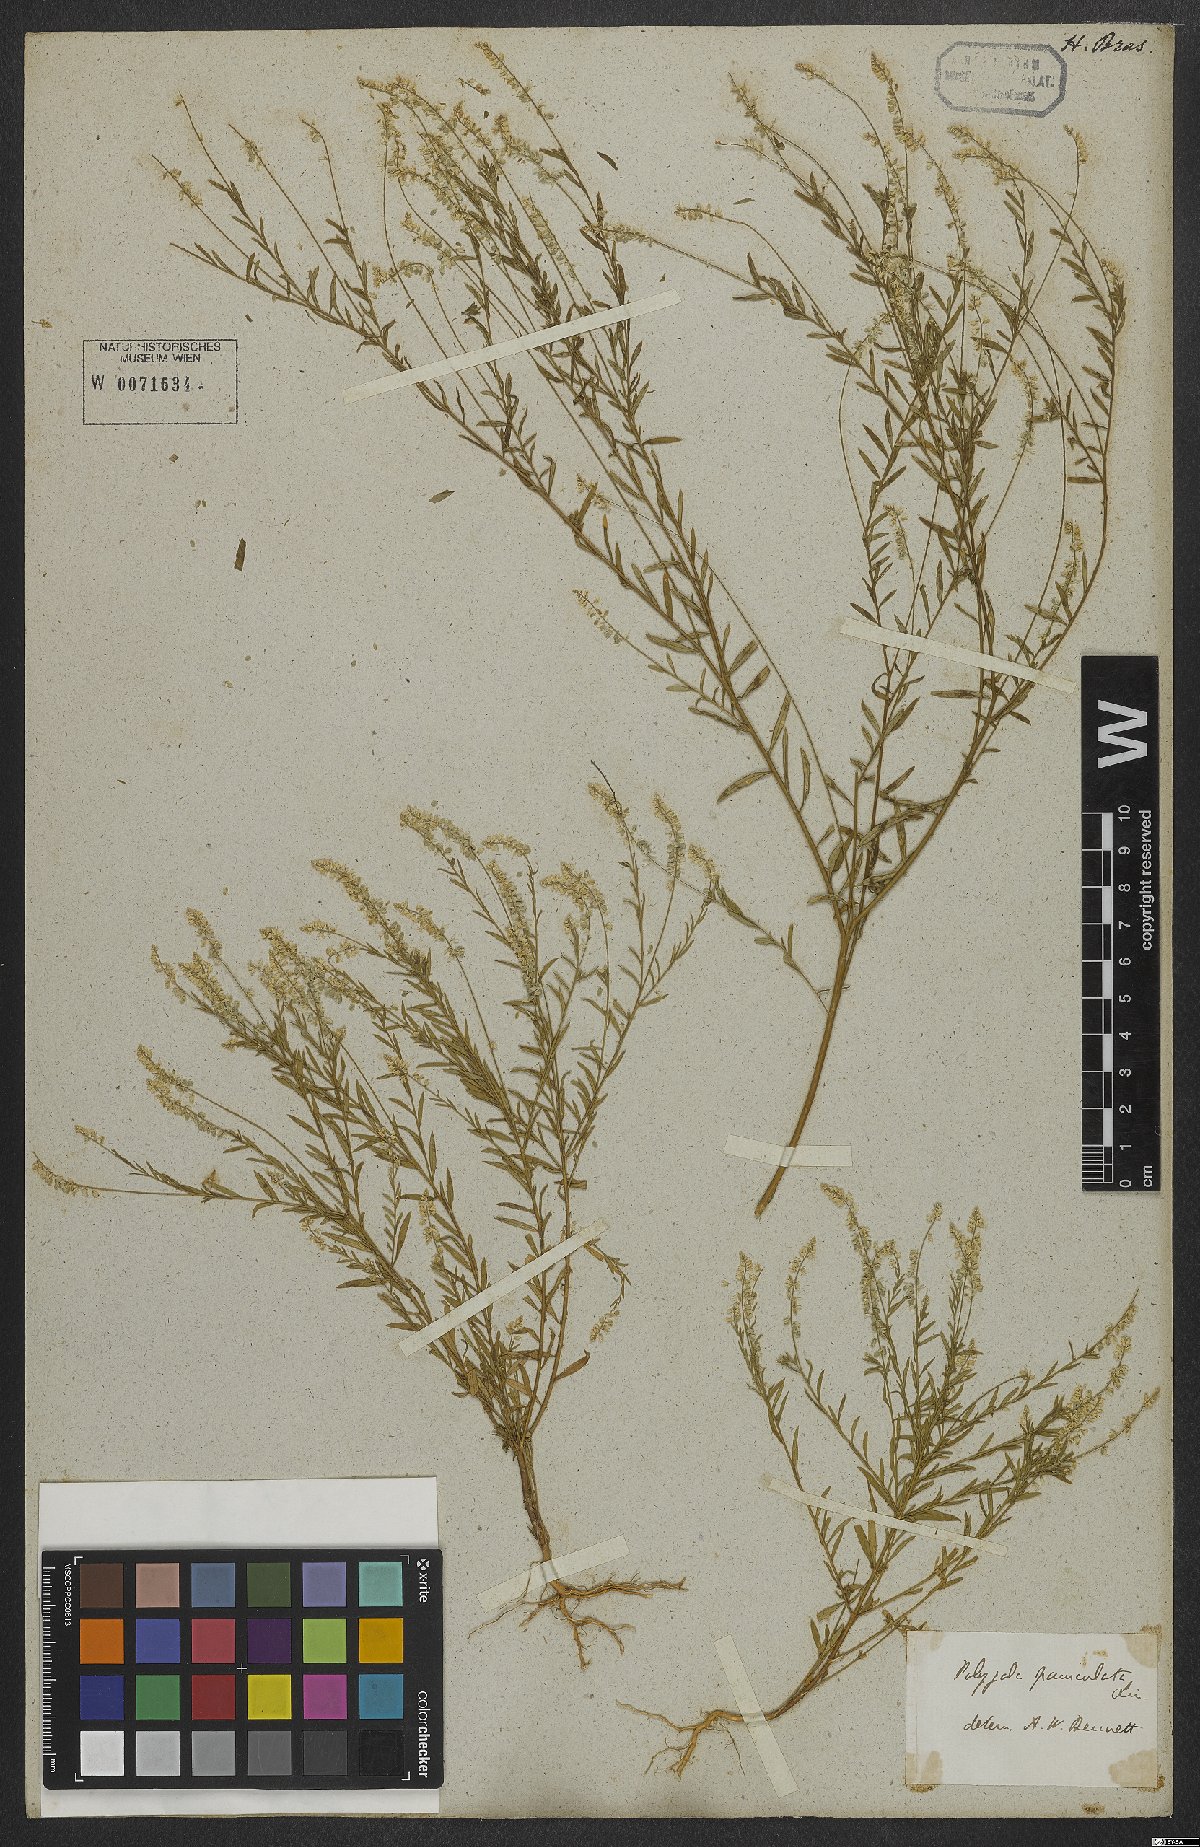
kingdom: Plantae
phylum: Tracheophyta
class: Magnoliopsida
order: Fabales
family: Polygalaceae
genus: Polygala
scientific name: Polygala exilis
